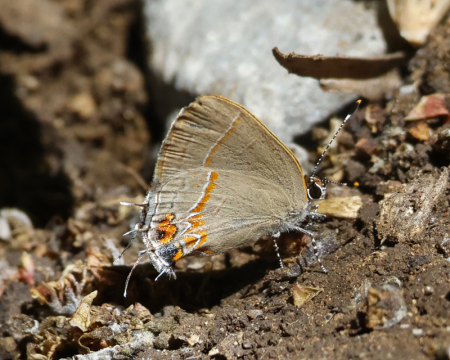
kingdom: Animalia
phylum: Arthropoda
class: Insecta
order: Lepidoptera
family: Lycaenidae
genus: Calycopis
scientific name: Calycopis drusilla
